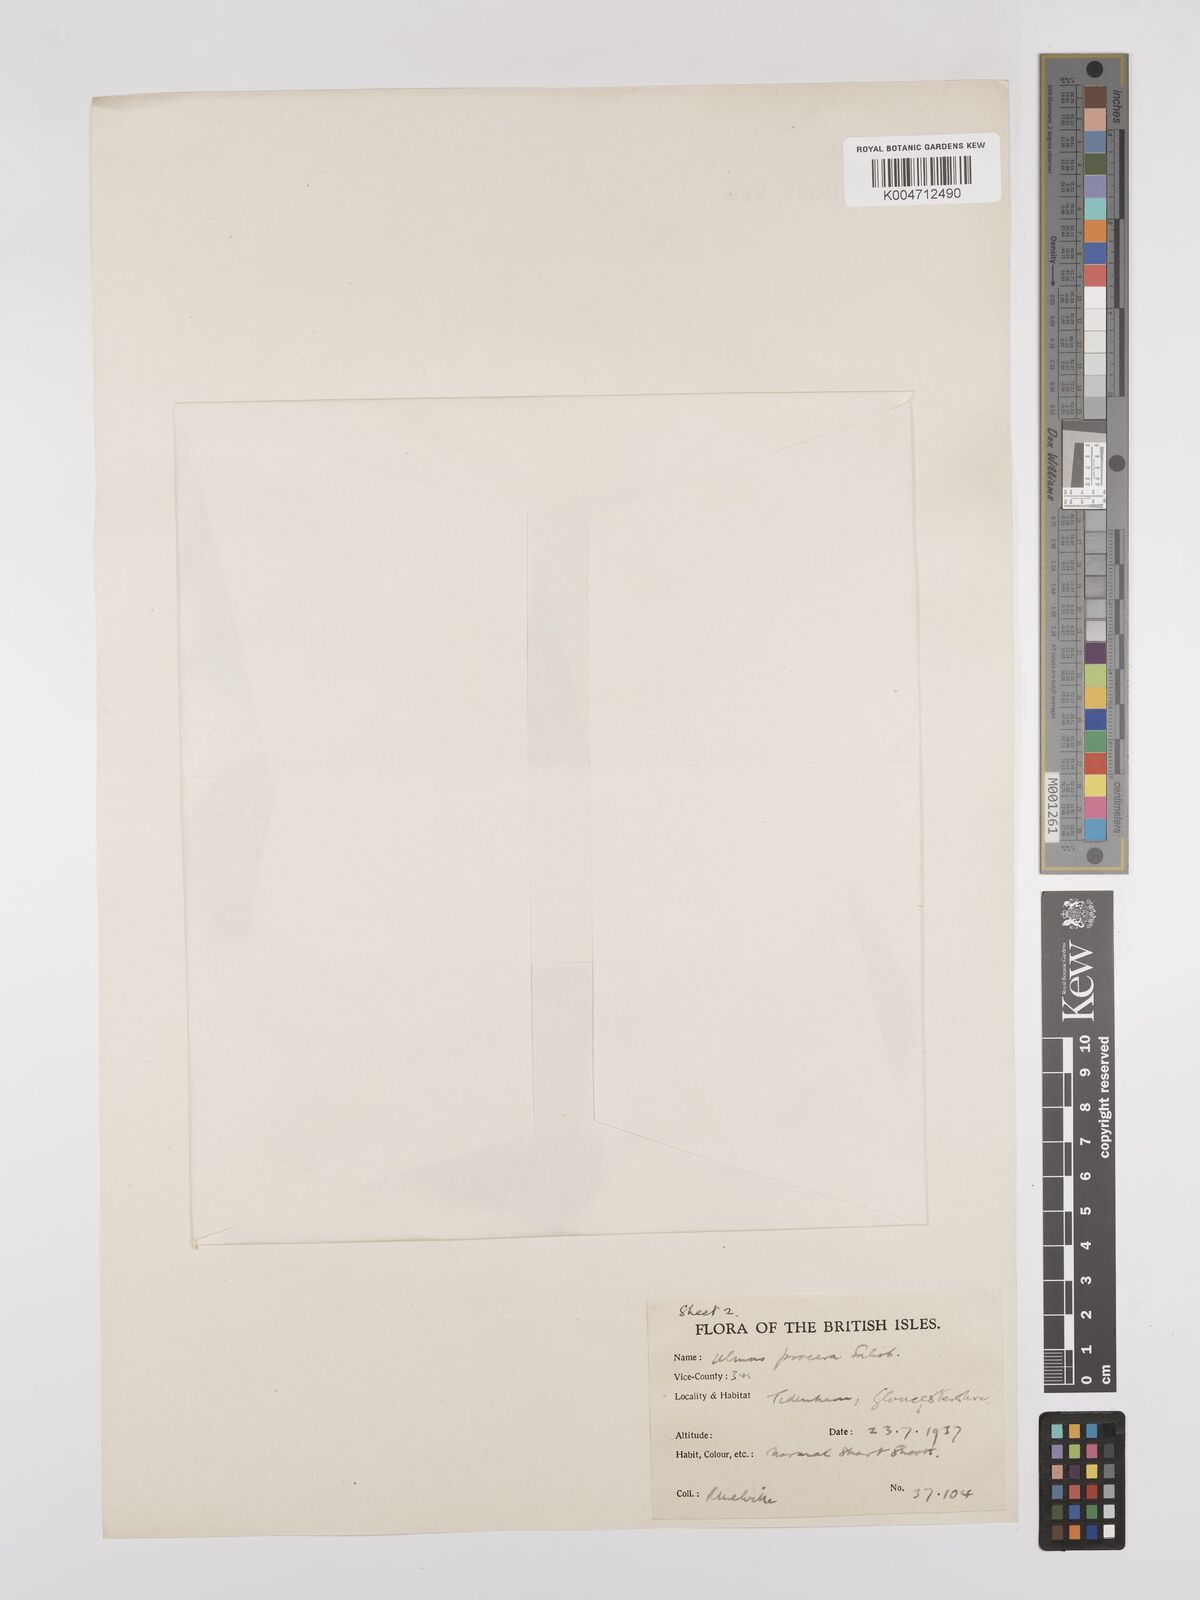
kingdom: Plantae
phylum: Tracheophyta
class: Magnoliopsida
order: Rosales
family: Ulmaceae
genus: Ulmus
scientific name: Ulmus minor
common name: Small-leaved elm
